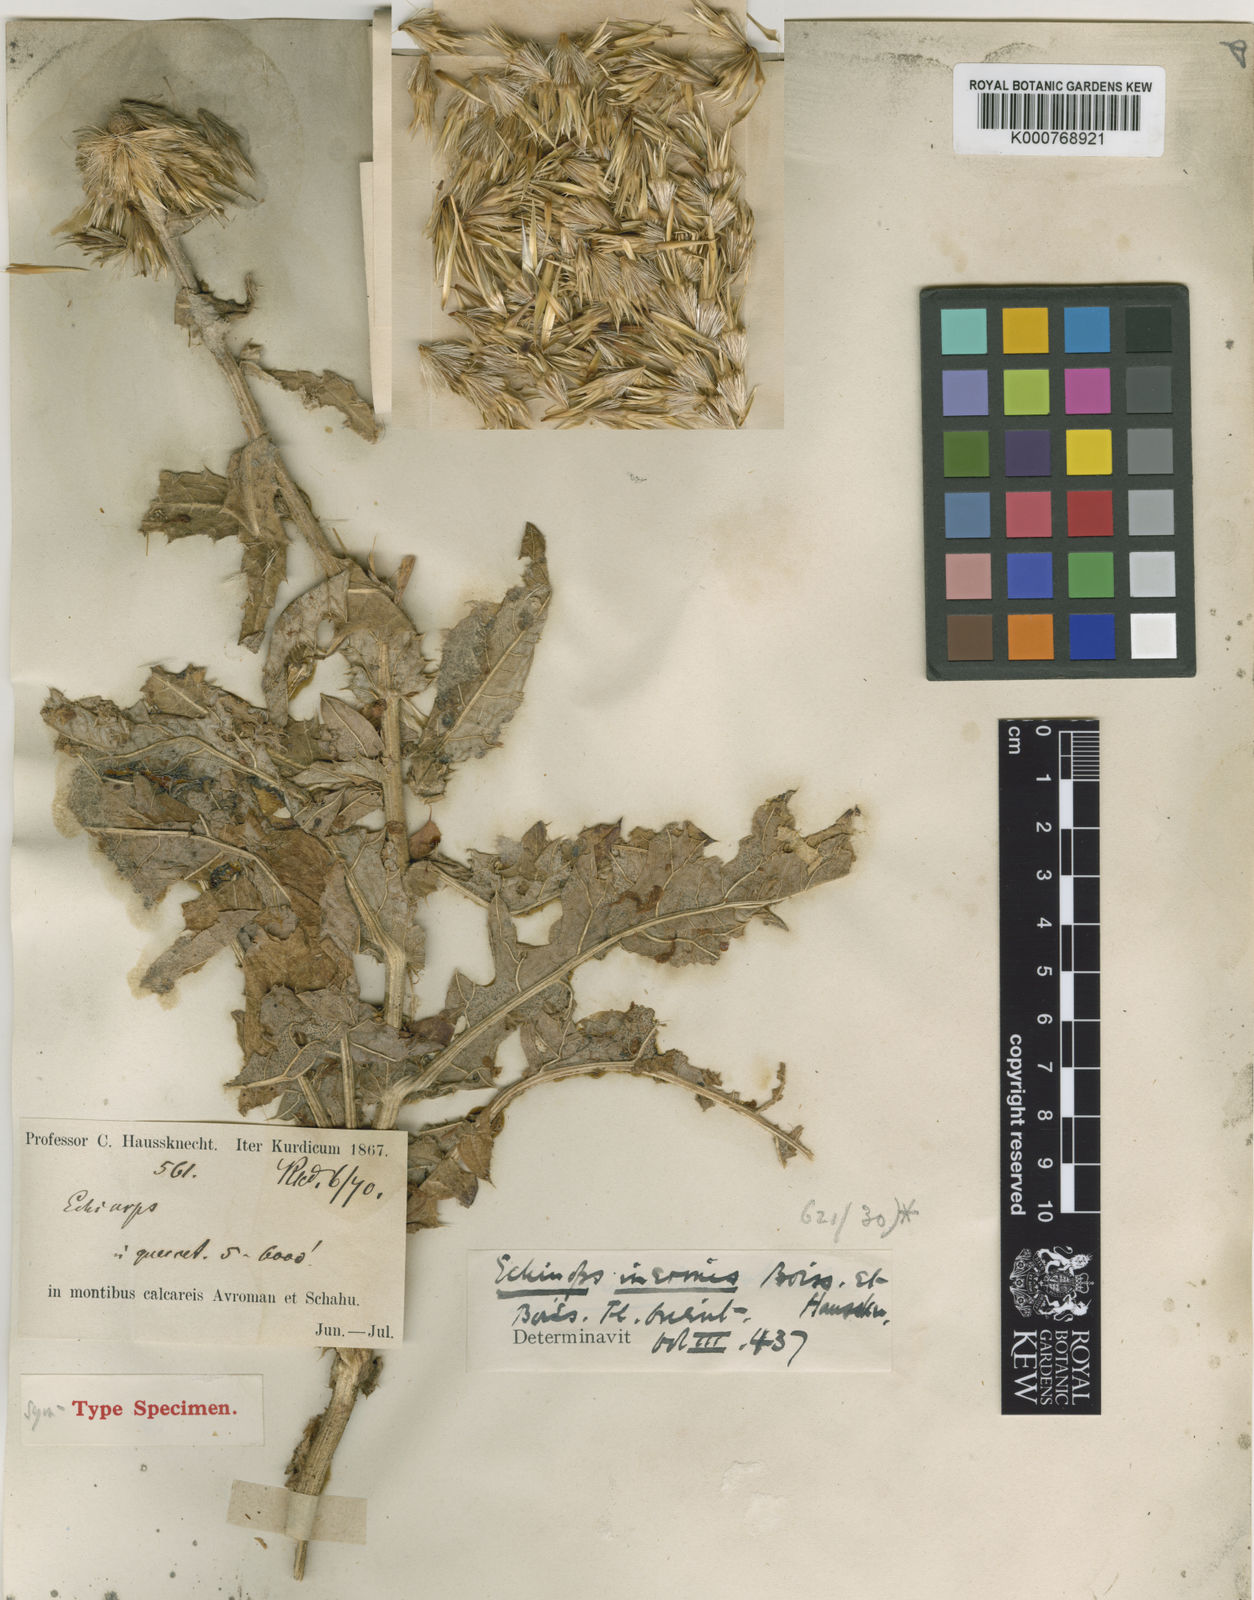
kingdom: Plantae
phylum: Tracheophyta
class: Magnoliopsida
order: Asterales
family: Asteraceae
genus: Echinops
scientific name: Echinops inermis
